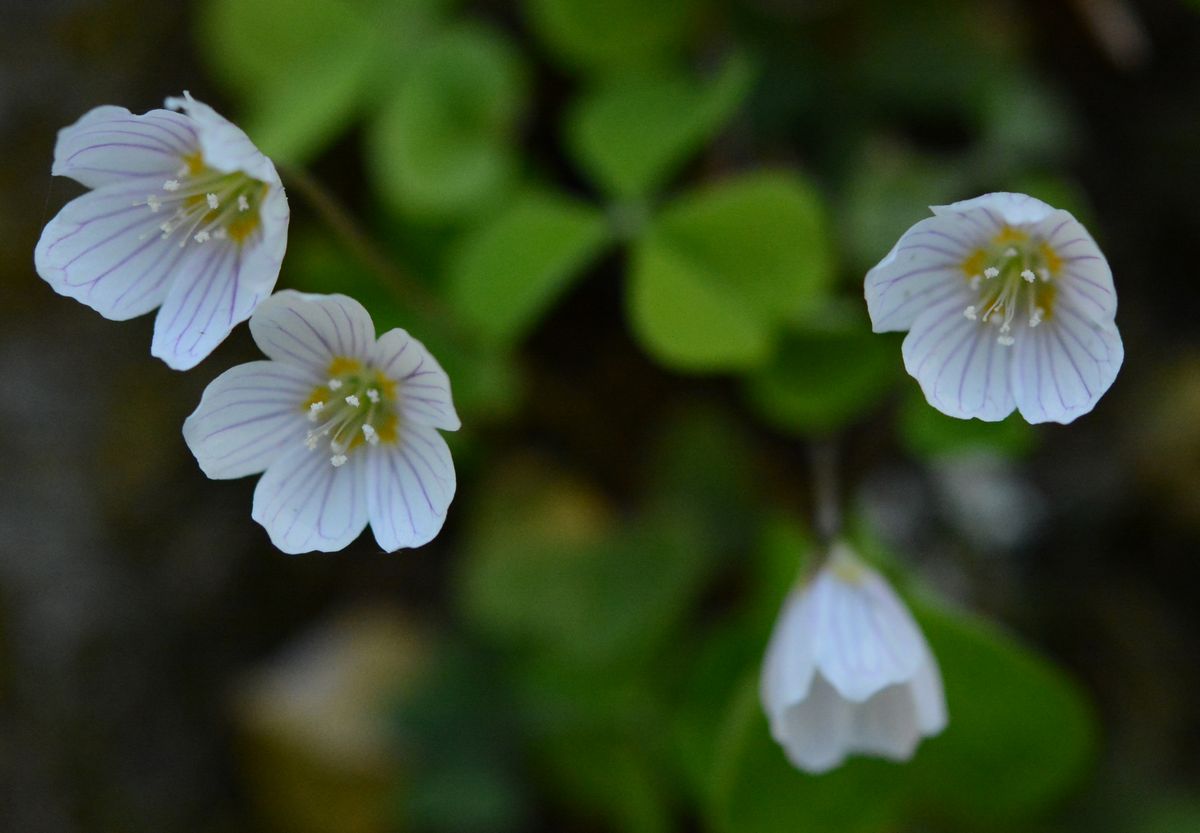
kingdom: Plantae
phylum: Tracheophyta
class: Magnoliopsida
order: Oxalidales
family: Oxalidaceae
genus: Oxalis
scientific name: Oxalis acetosella
